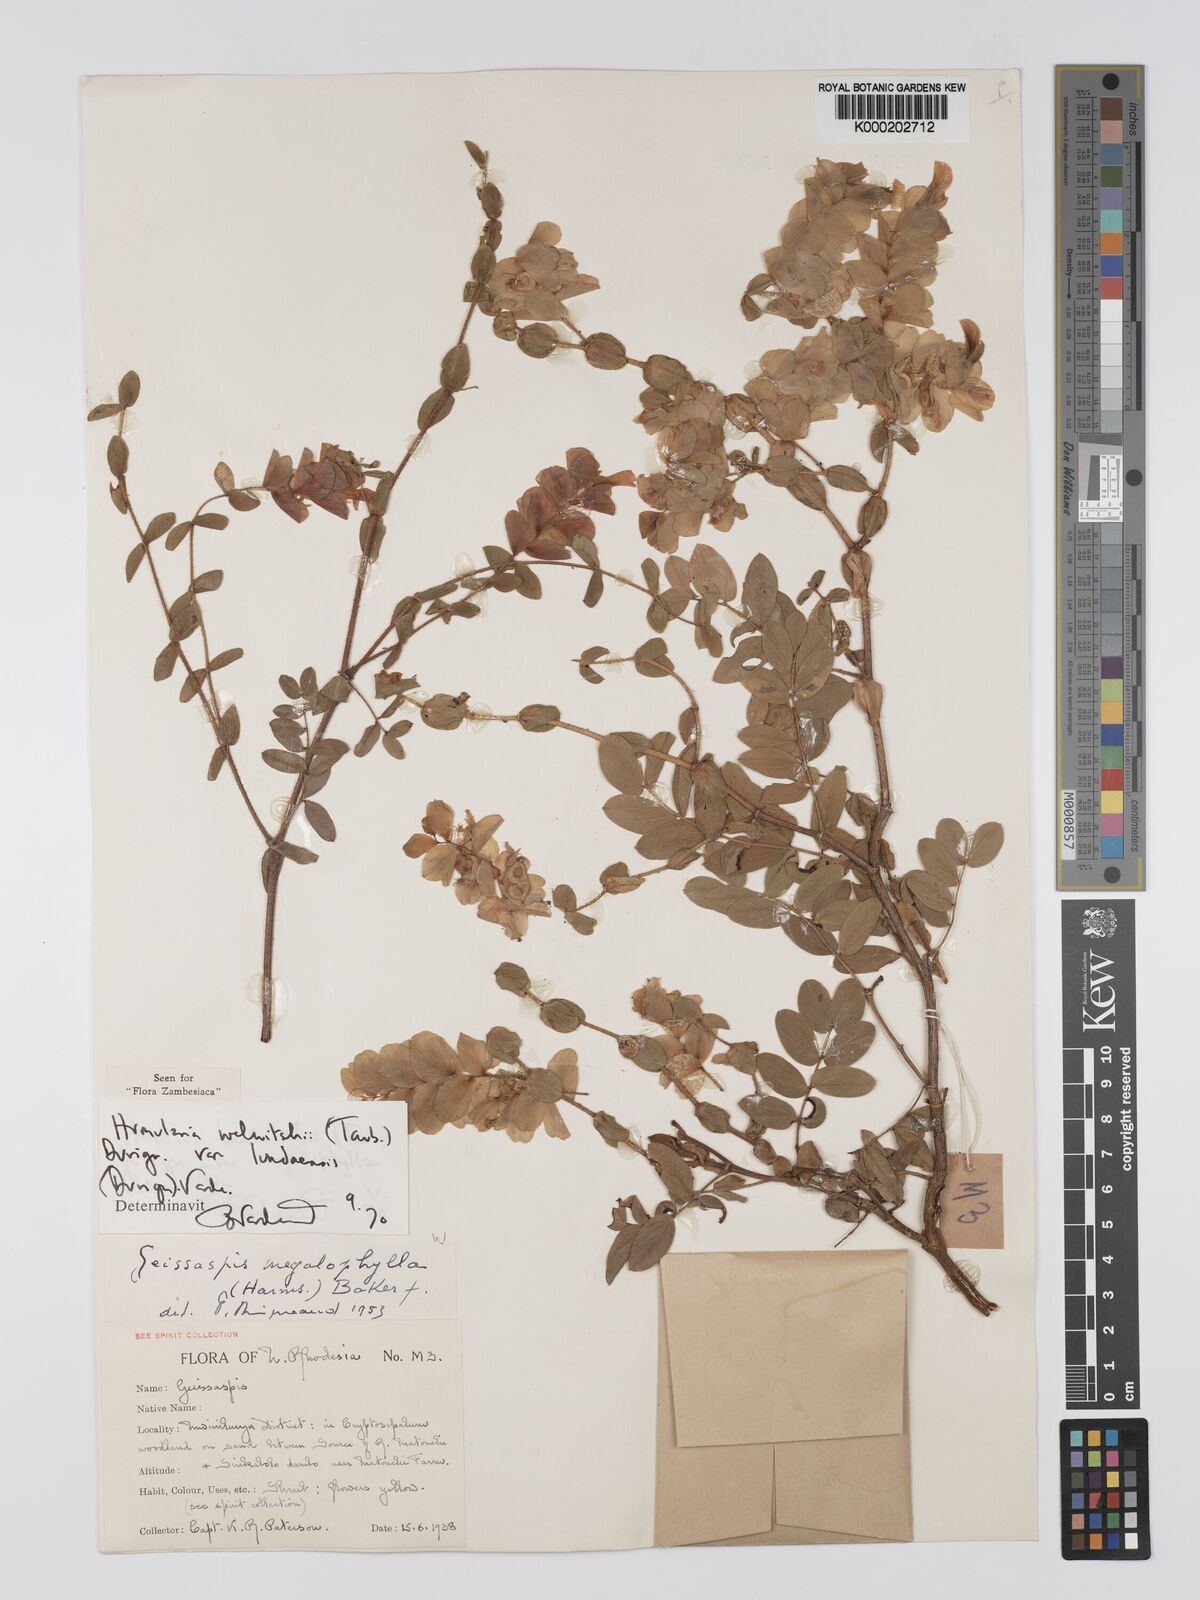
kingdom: Plantae
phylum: Tracheophyta
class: Magnoliopsida
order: Fabales
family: Fabaceae
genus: Humularia
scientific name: Humularia welwitschii
